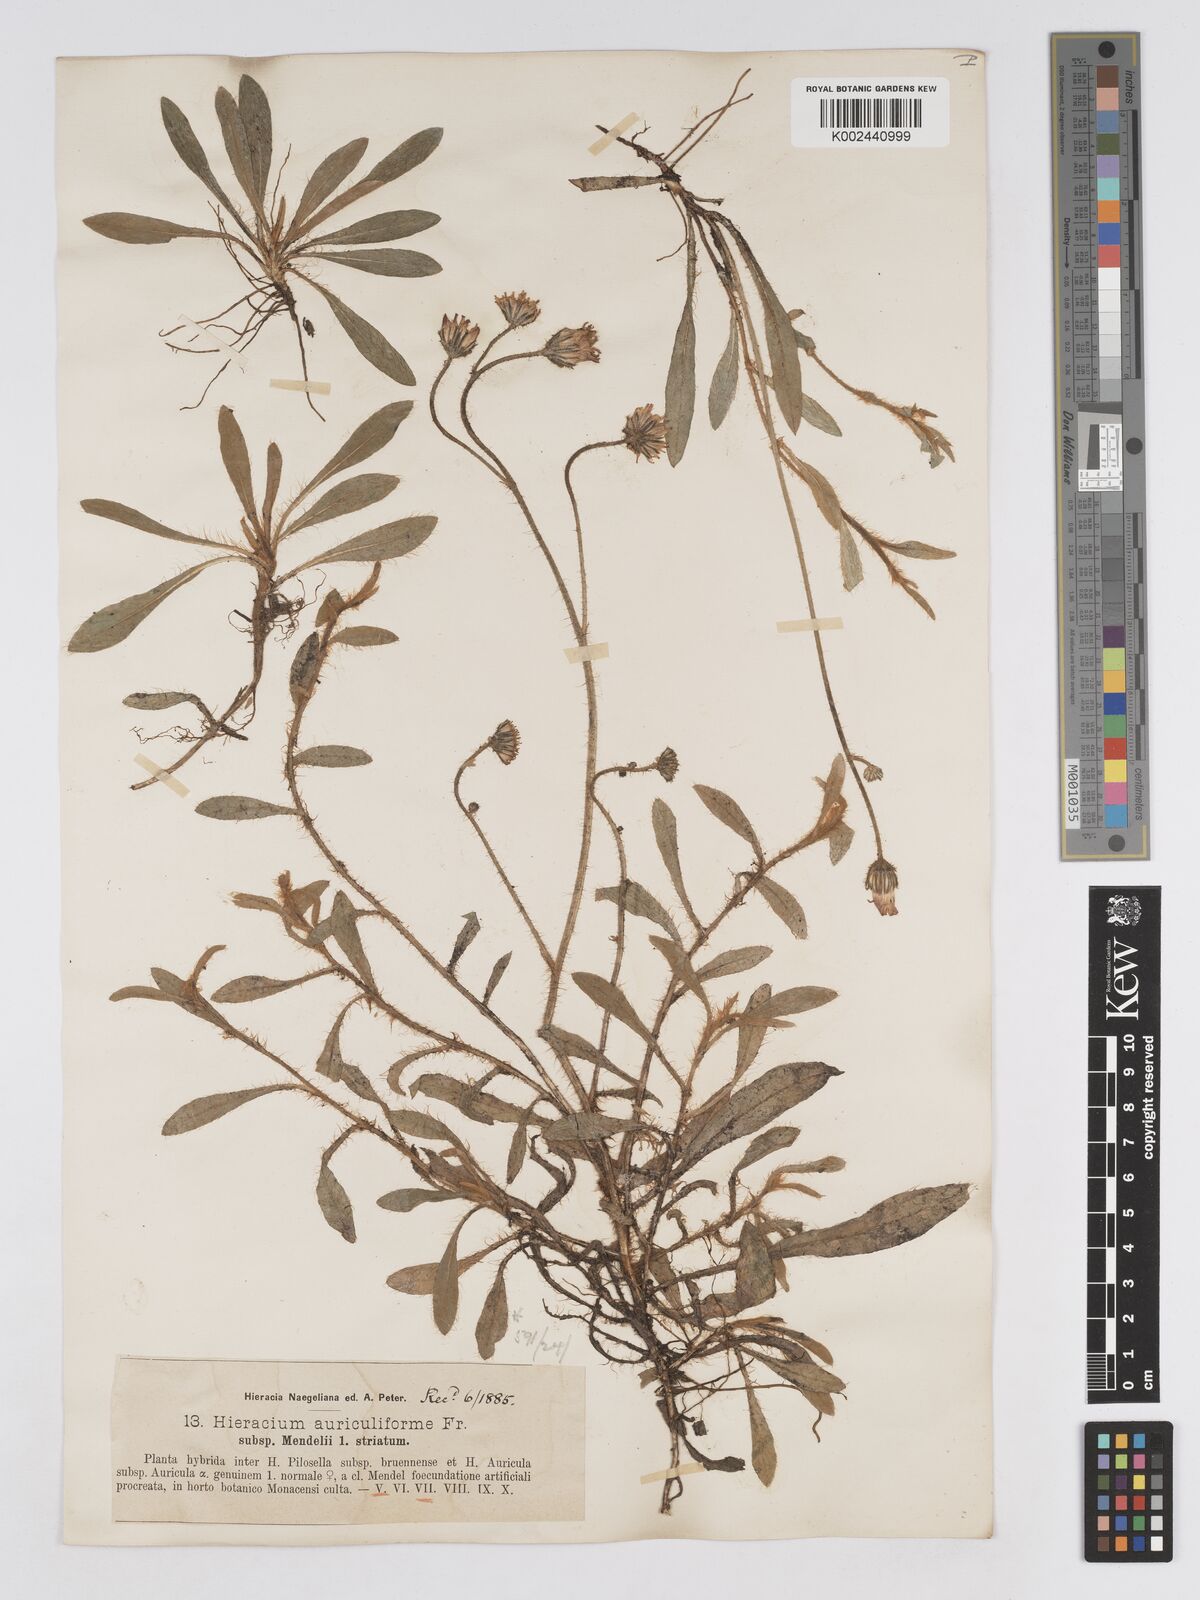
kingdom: Plantae
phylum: Tracheophyta
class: Magnoliopsida
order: Asterales
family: Asteraceae
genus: Pilosella
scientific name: Pilosella schultesii
